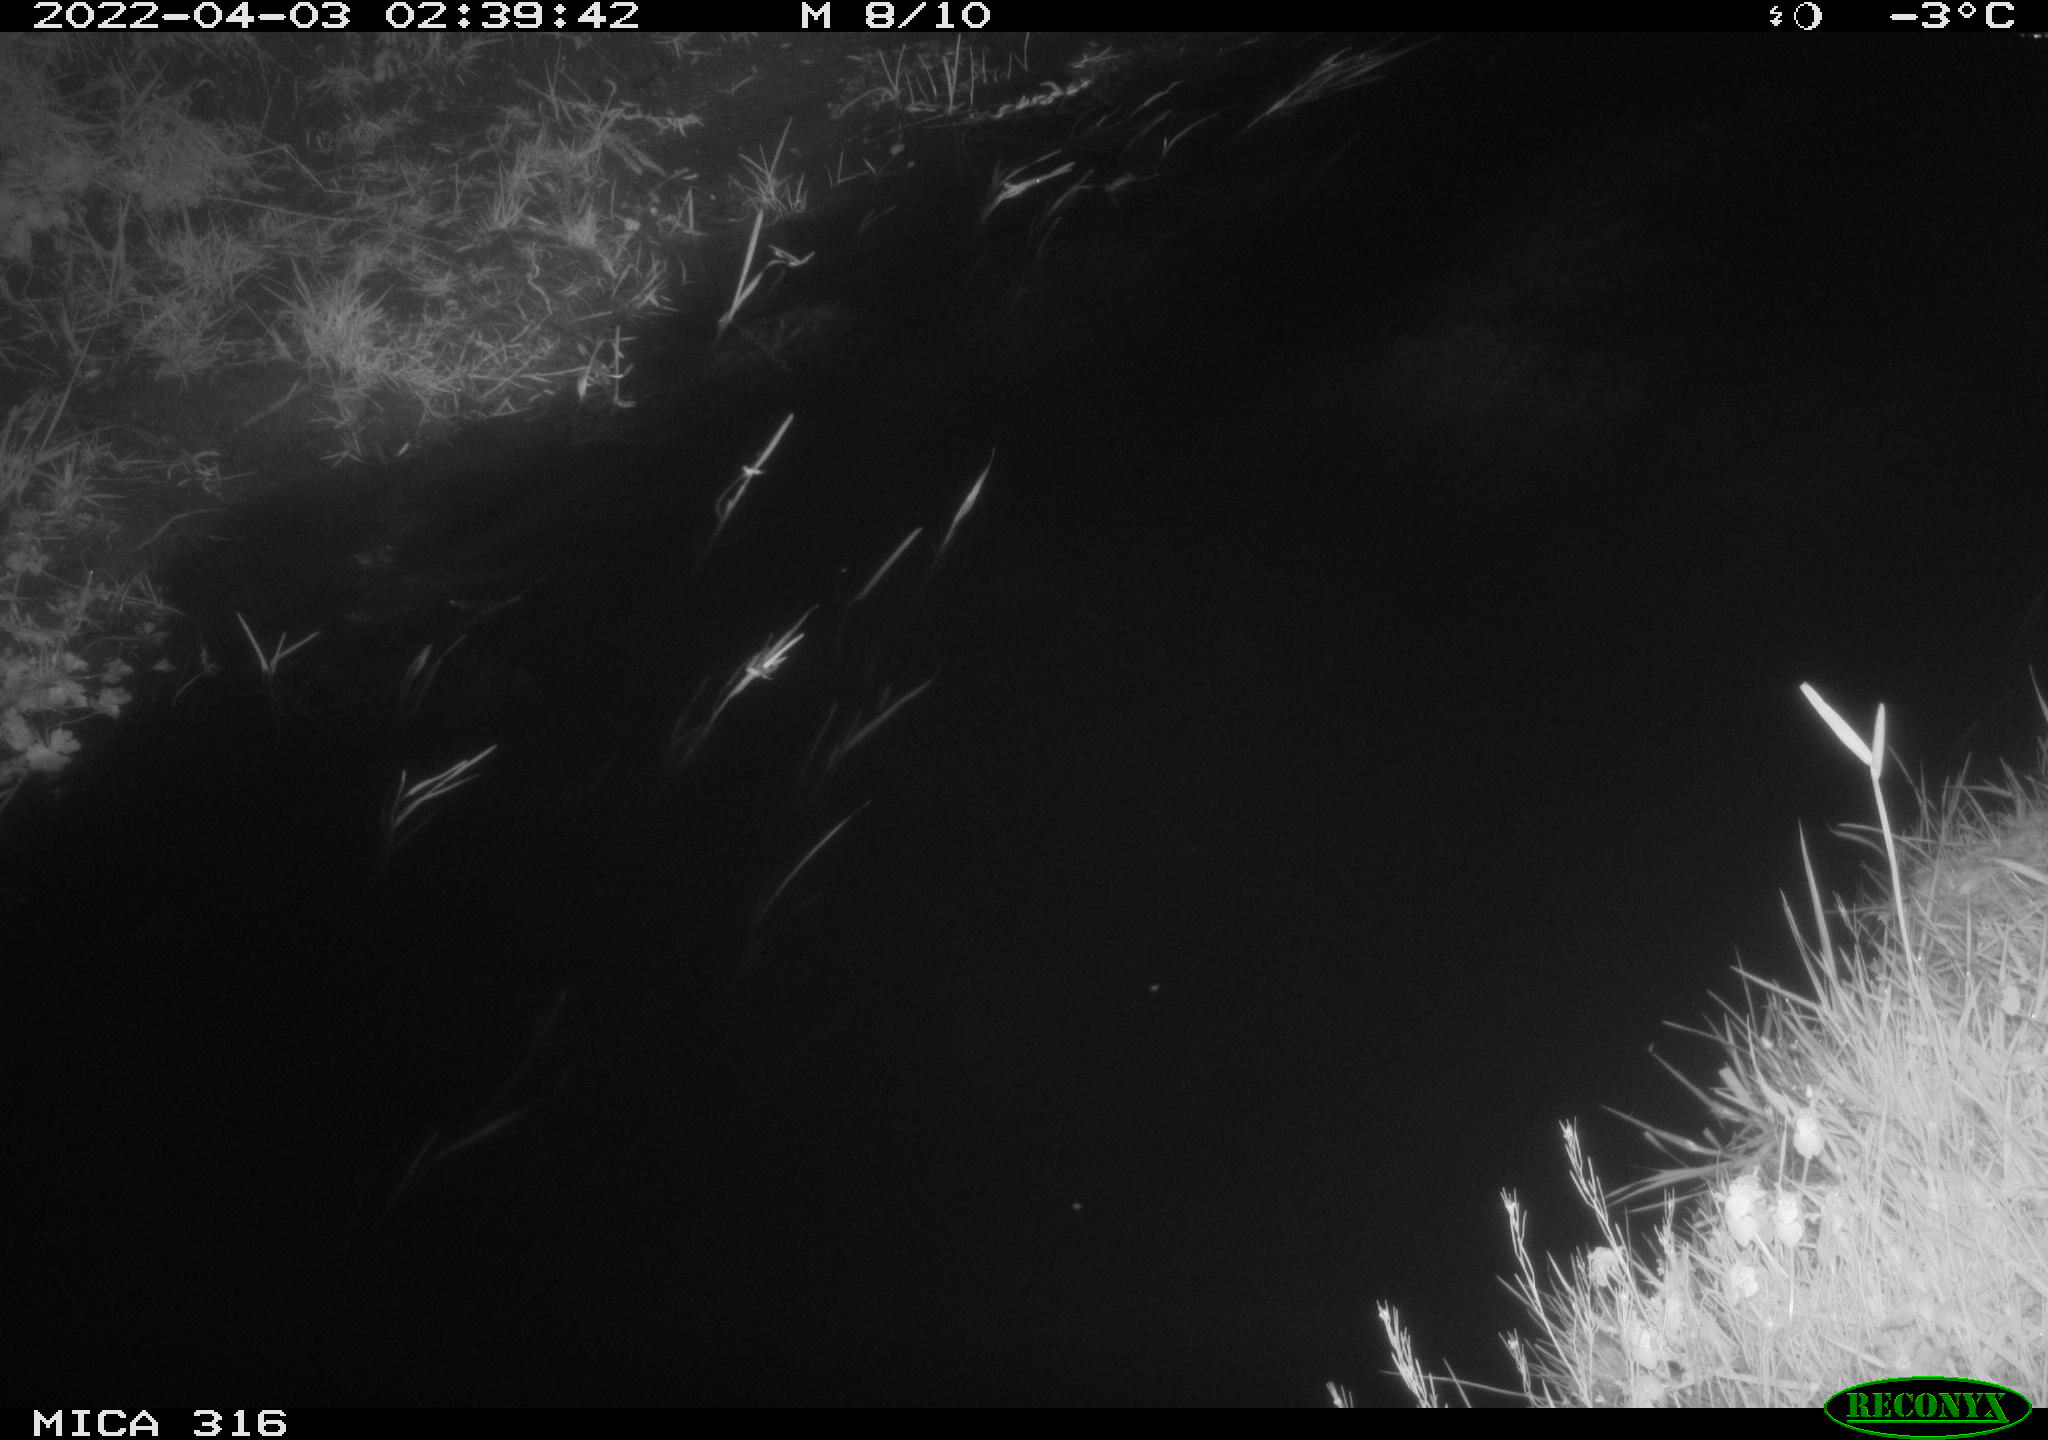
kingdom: Animalia
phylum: Chordata
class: Aves
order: Anseriformes
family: Anatidae
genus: Anas
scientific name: Anas platyrhynchos
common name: Mallard
